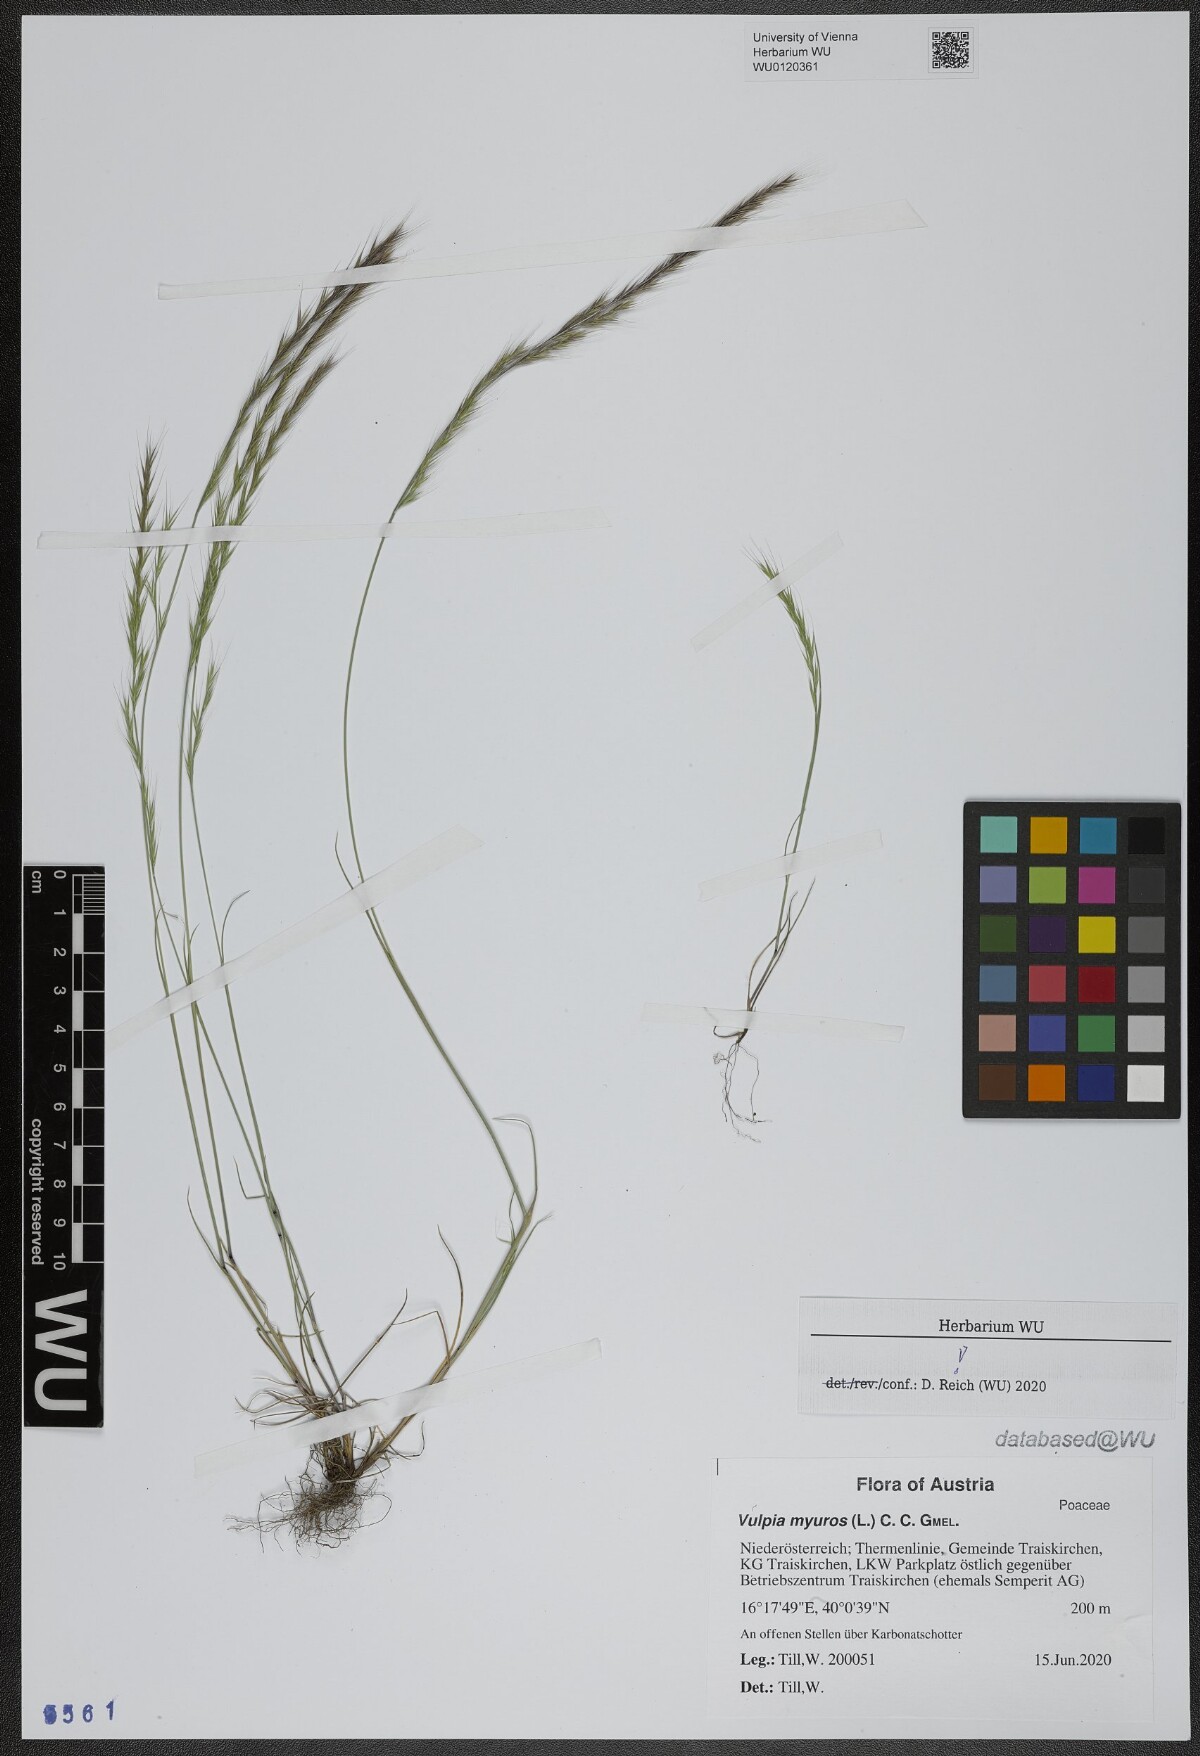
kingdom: Plantae
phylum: Tracheophyta
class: Liliopsida
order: Poales
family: Poaceae
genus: Festuca
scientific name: Festuca myuros
